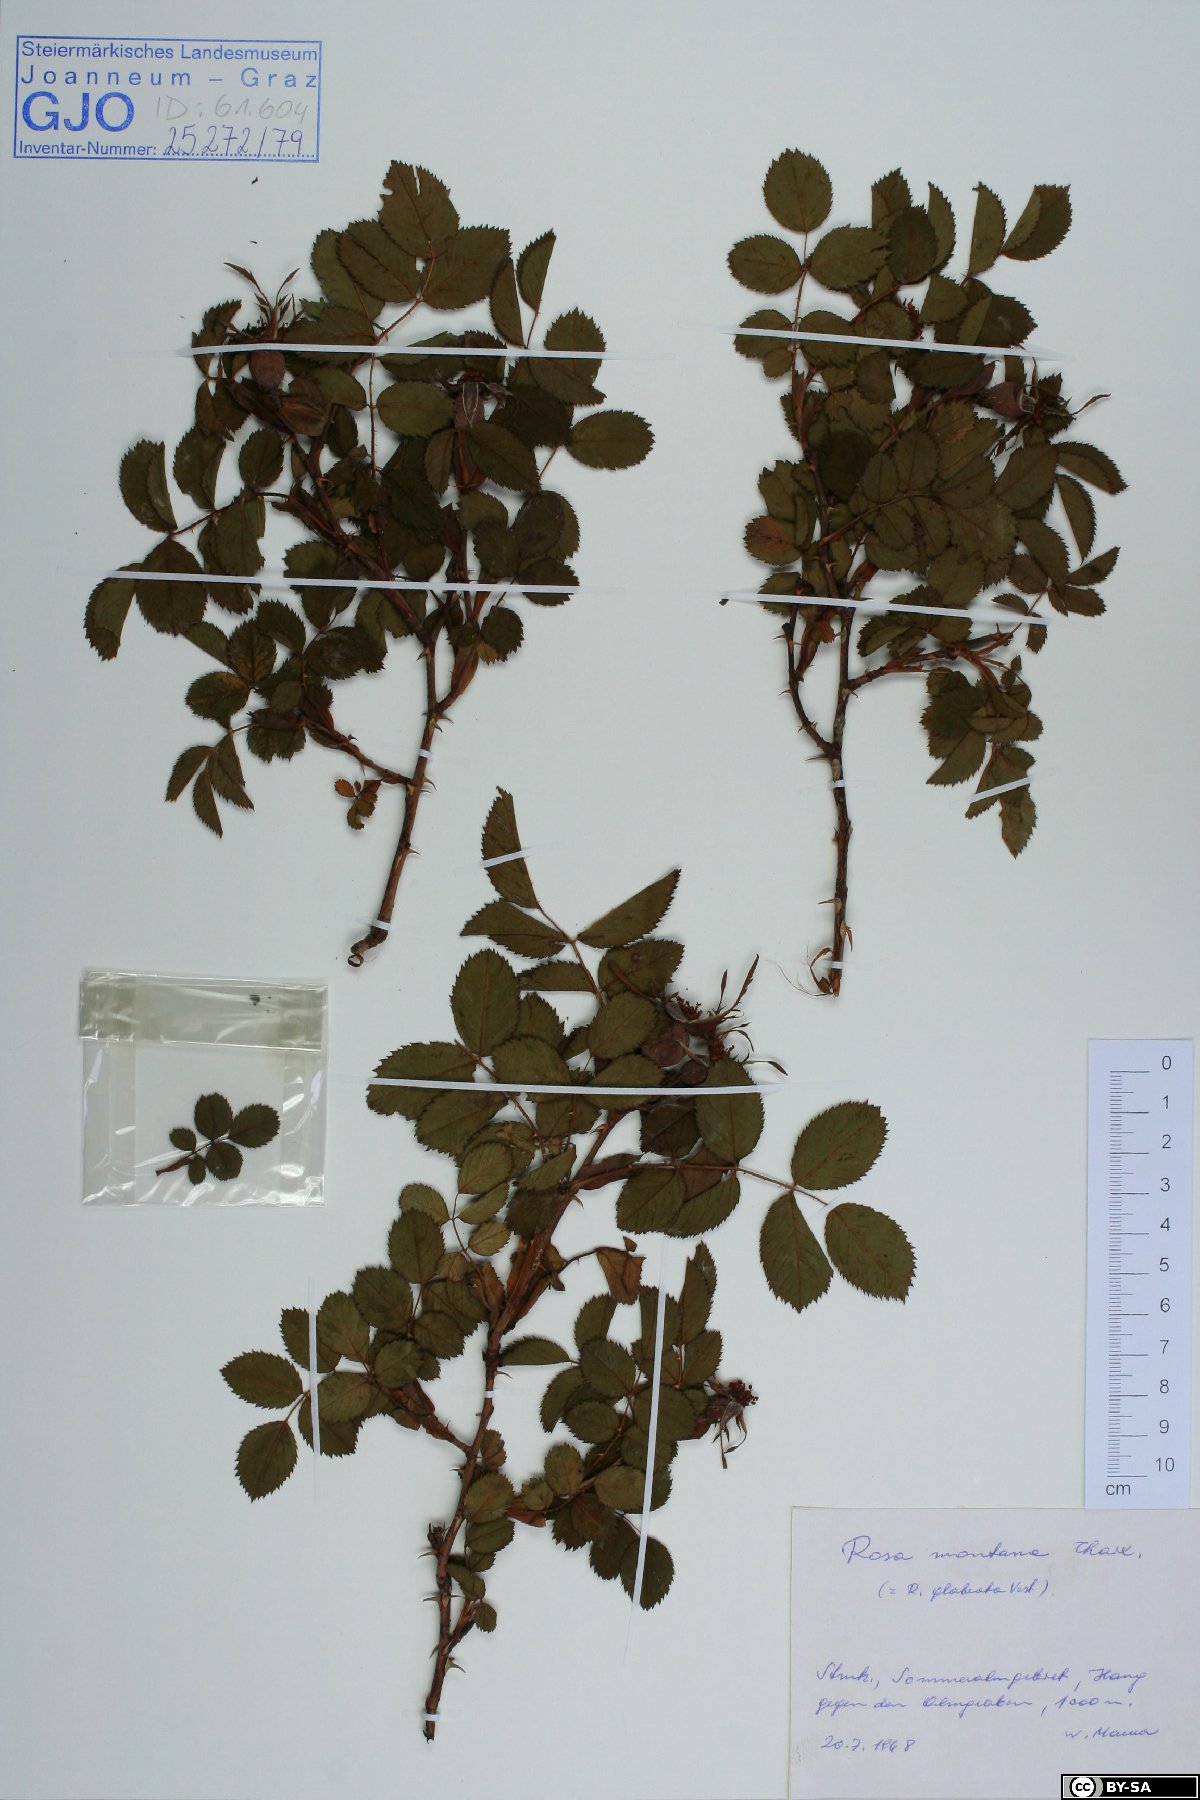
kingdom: Plantae
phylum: Tracheophyta
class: Magnoliopsida
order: Rosales
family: Rosaceae
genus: Rosa
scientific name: Rosa montana
